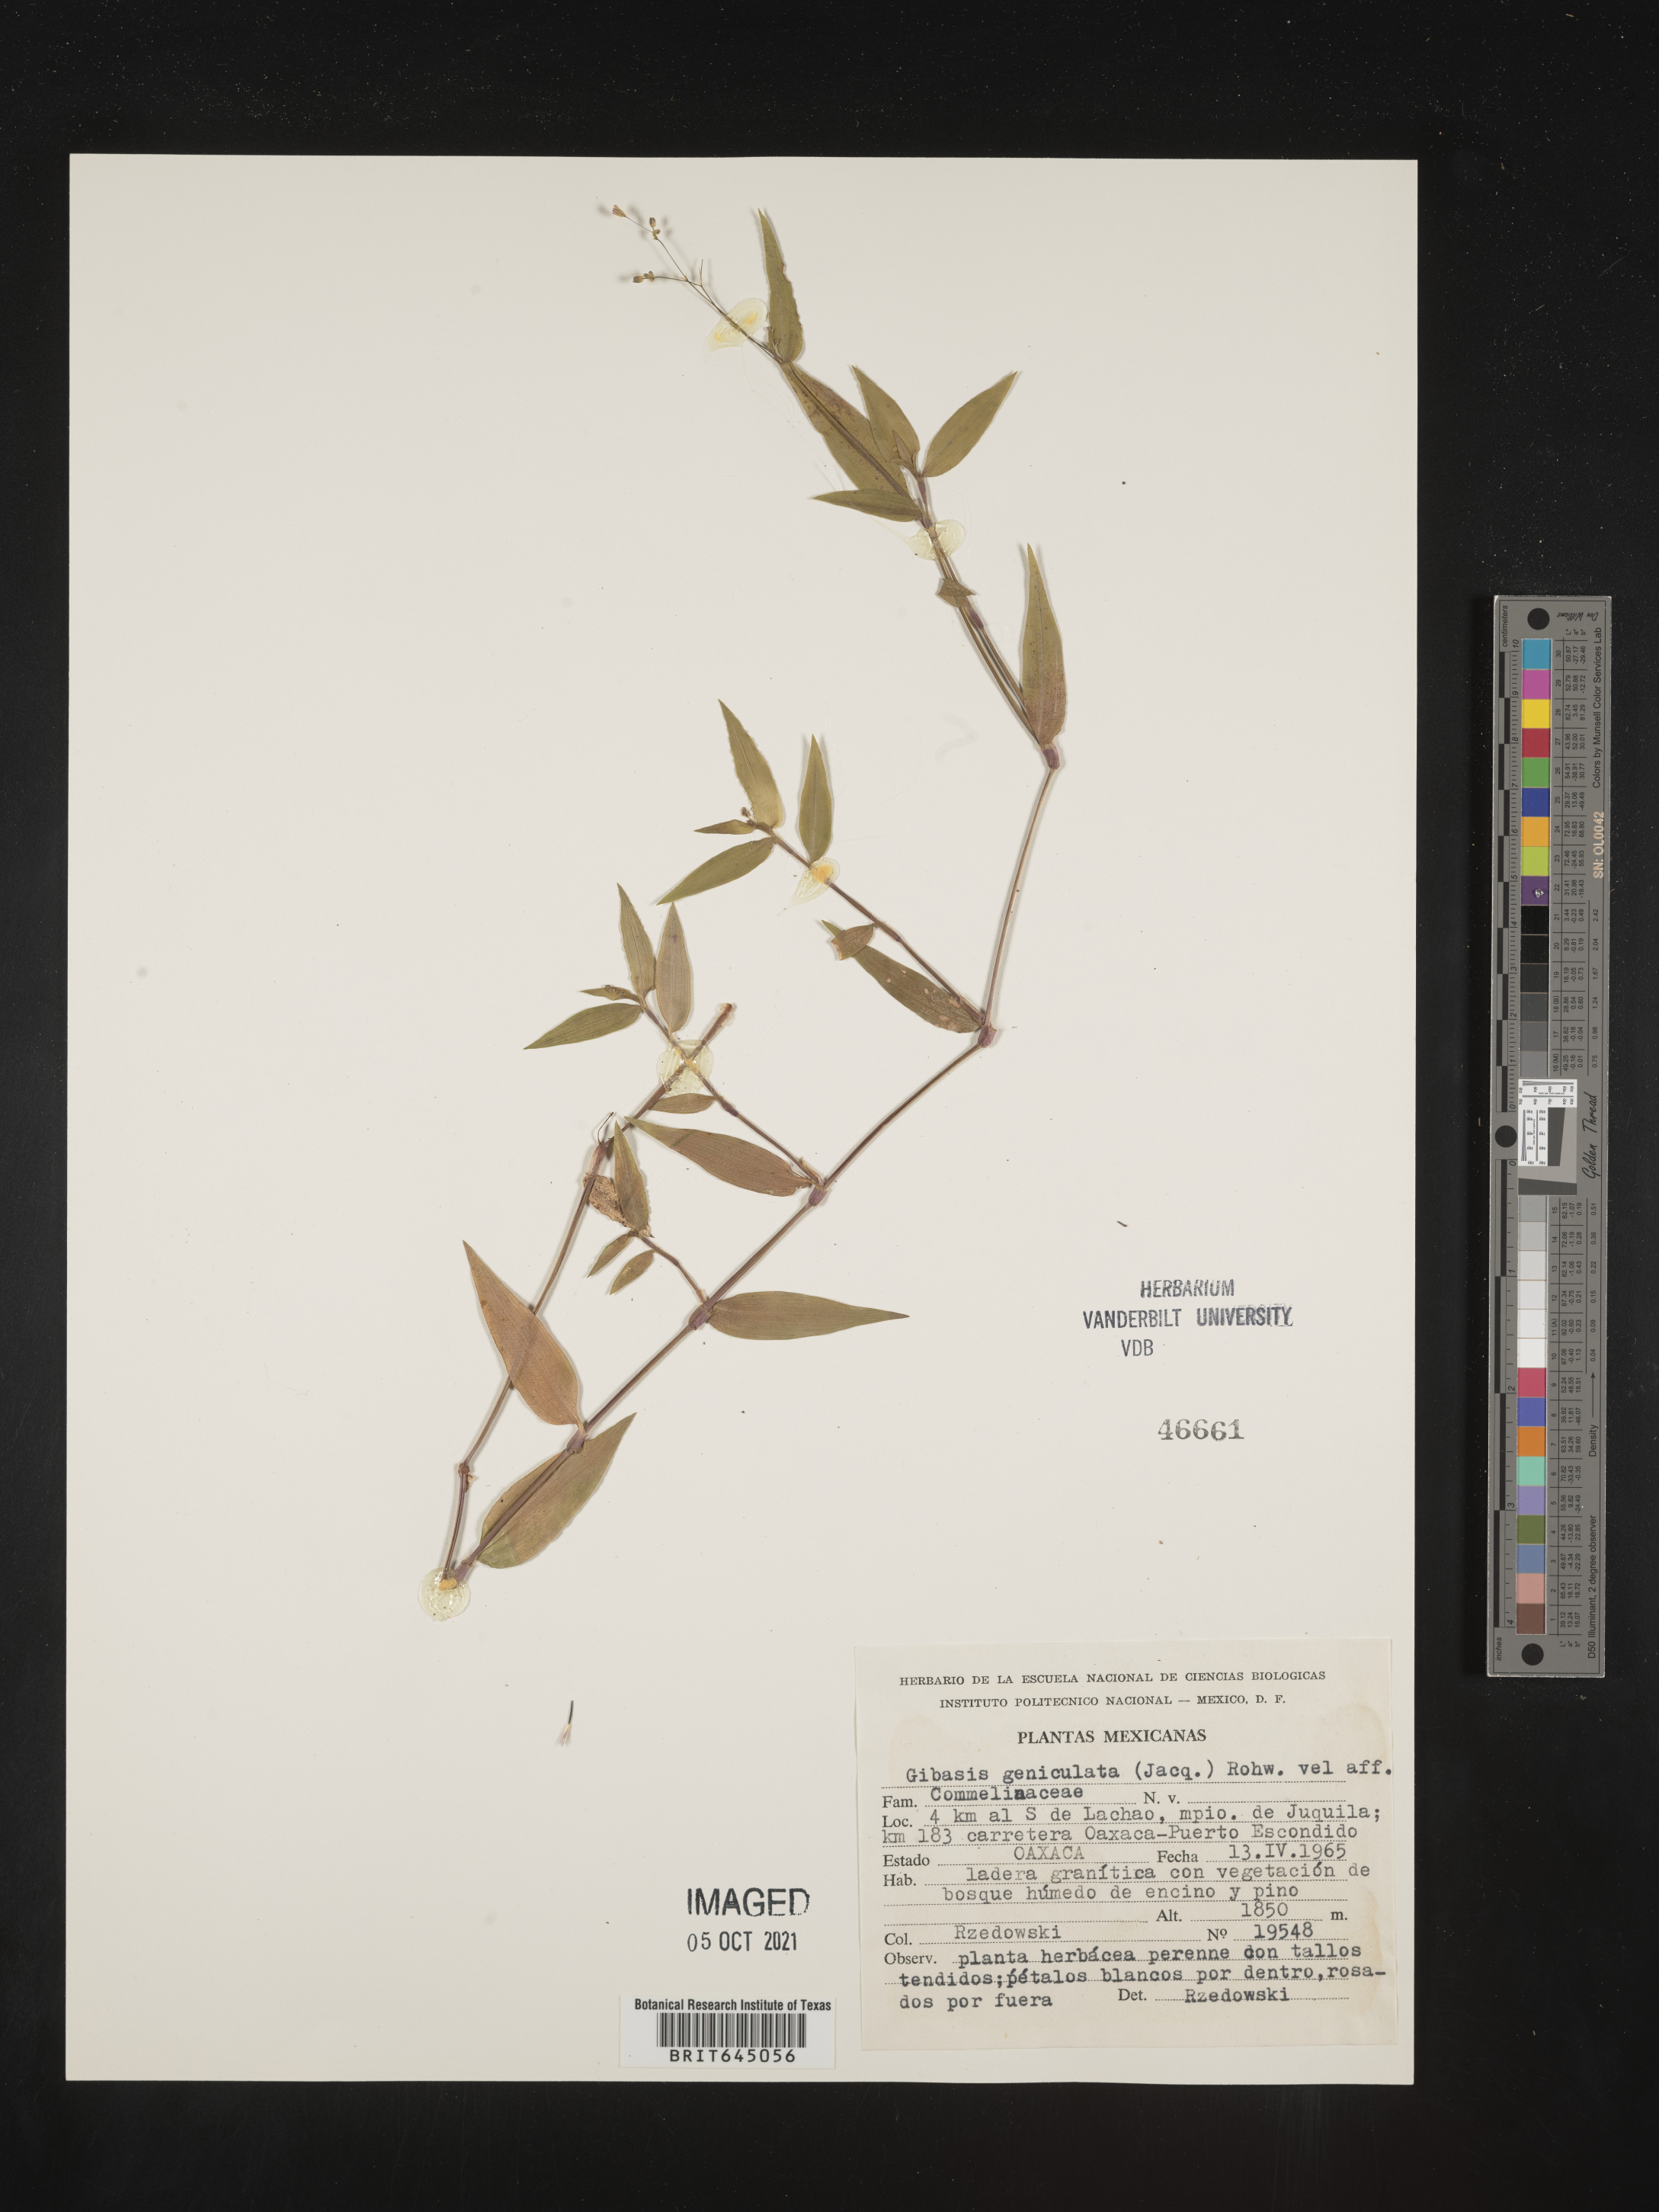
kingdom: Plantae
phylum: Tracheophyta
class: Liliopsida
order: Commelinales
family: Commelinaceae
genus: Gibasis
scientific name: Gibasis
